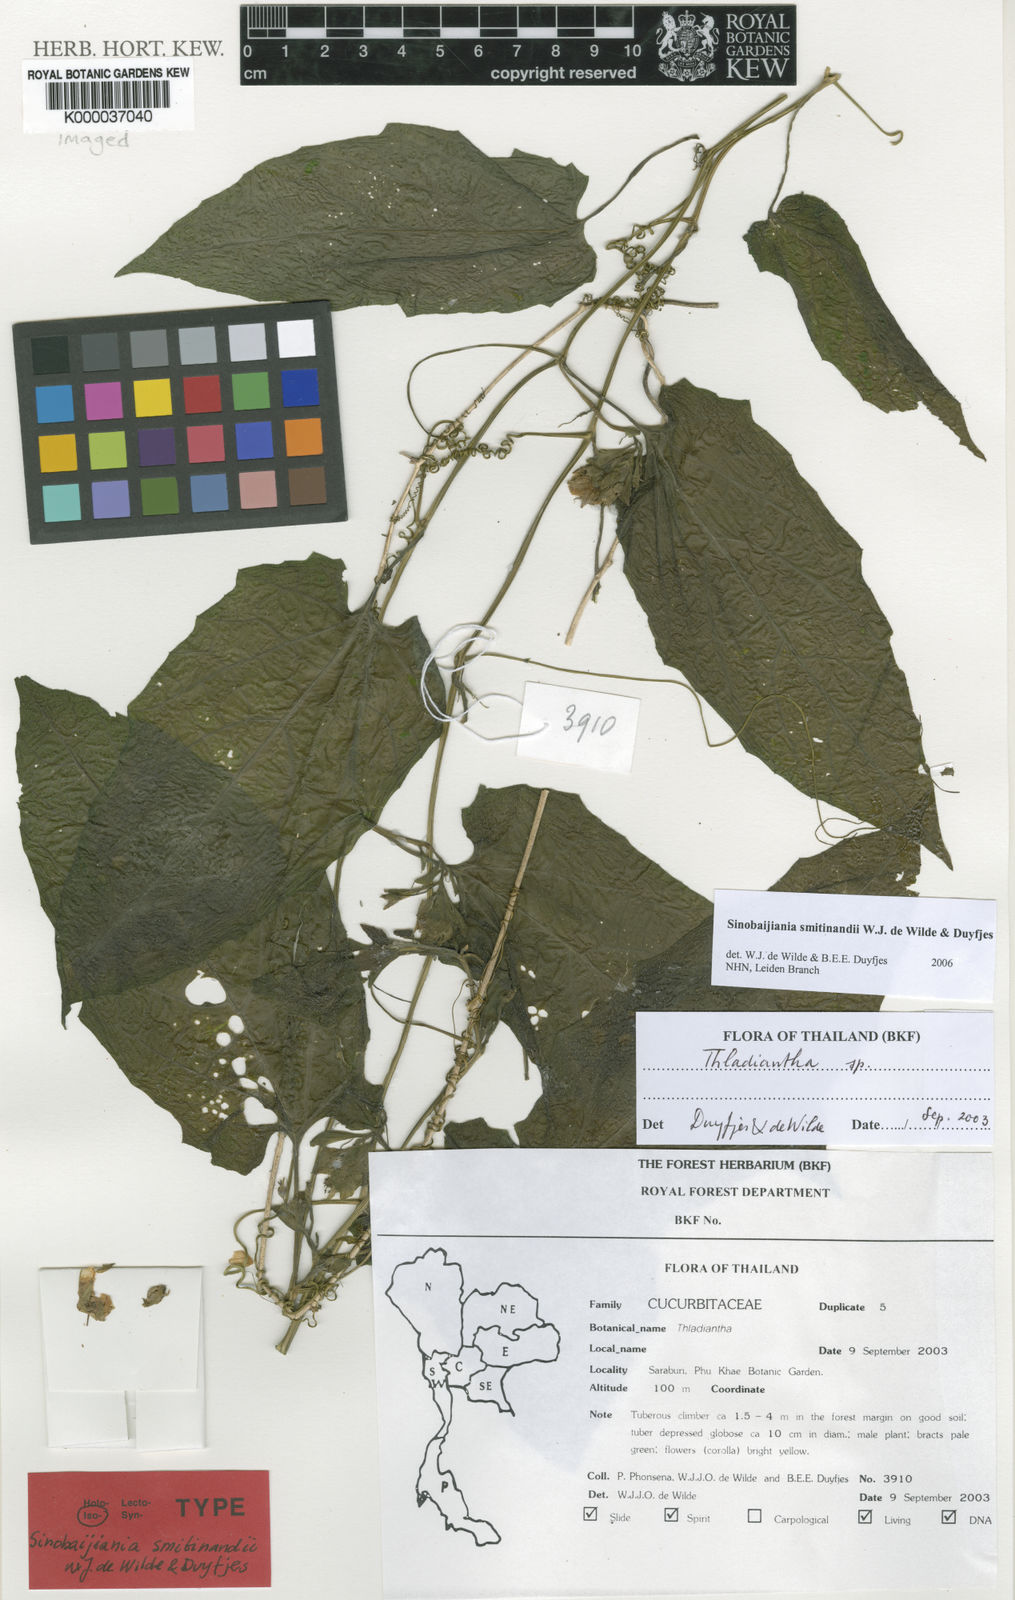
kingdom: Plantae
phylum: Tracheophyta
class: Magnoliopsida
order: Cucurbitales
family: Cucurbitaceae
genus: Sinobaijiania
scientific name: Sinobaijiania
